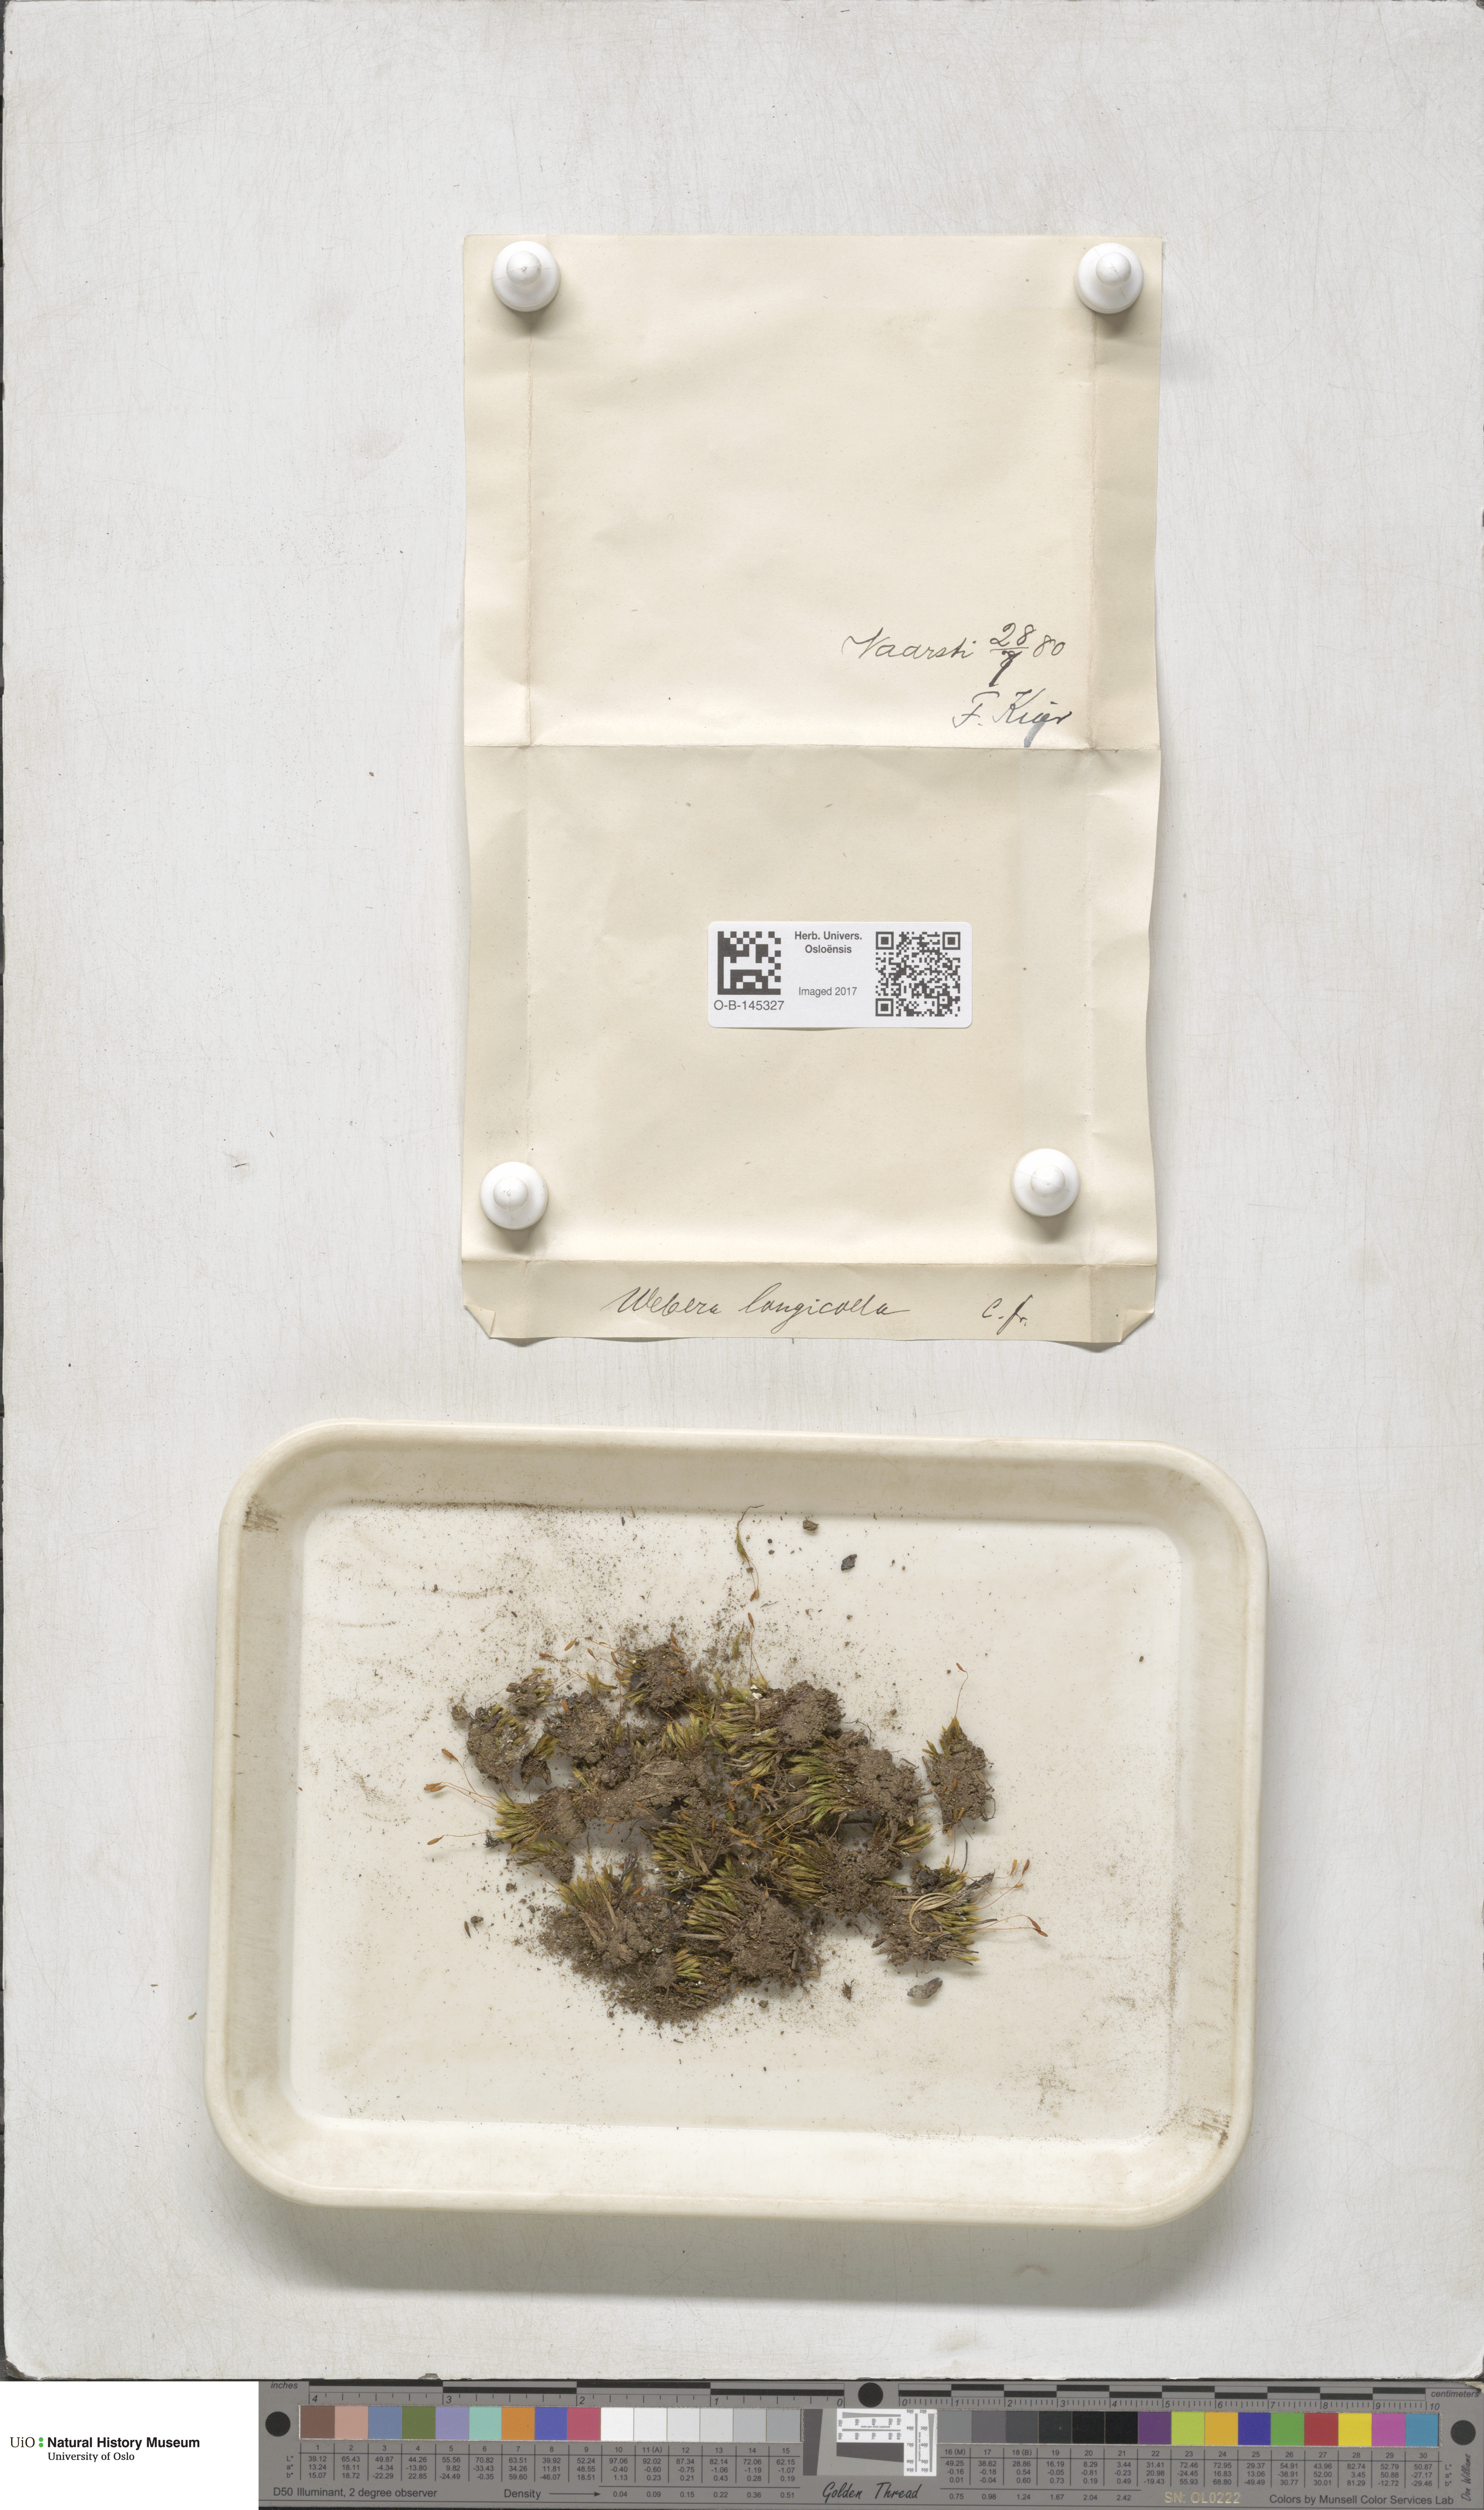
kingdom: Plantae
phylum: Bryophyta
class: Bryopsida
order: Bryales
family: Mniaceae
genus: Pohlia
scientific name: Pohlia longicolla
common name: Long-necked nodding moss
